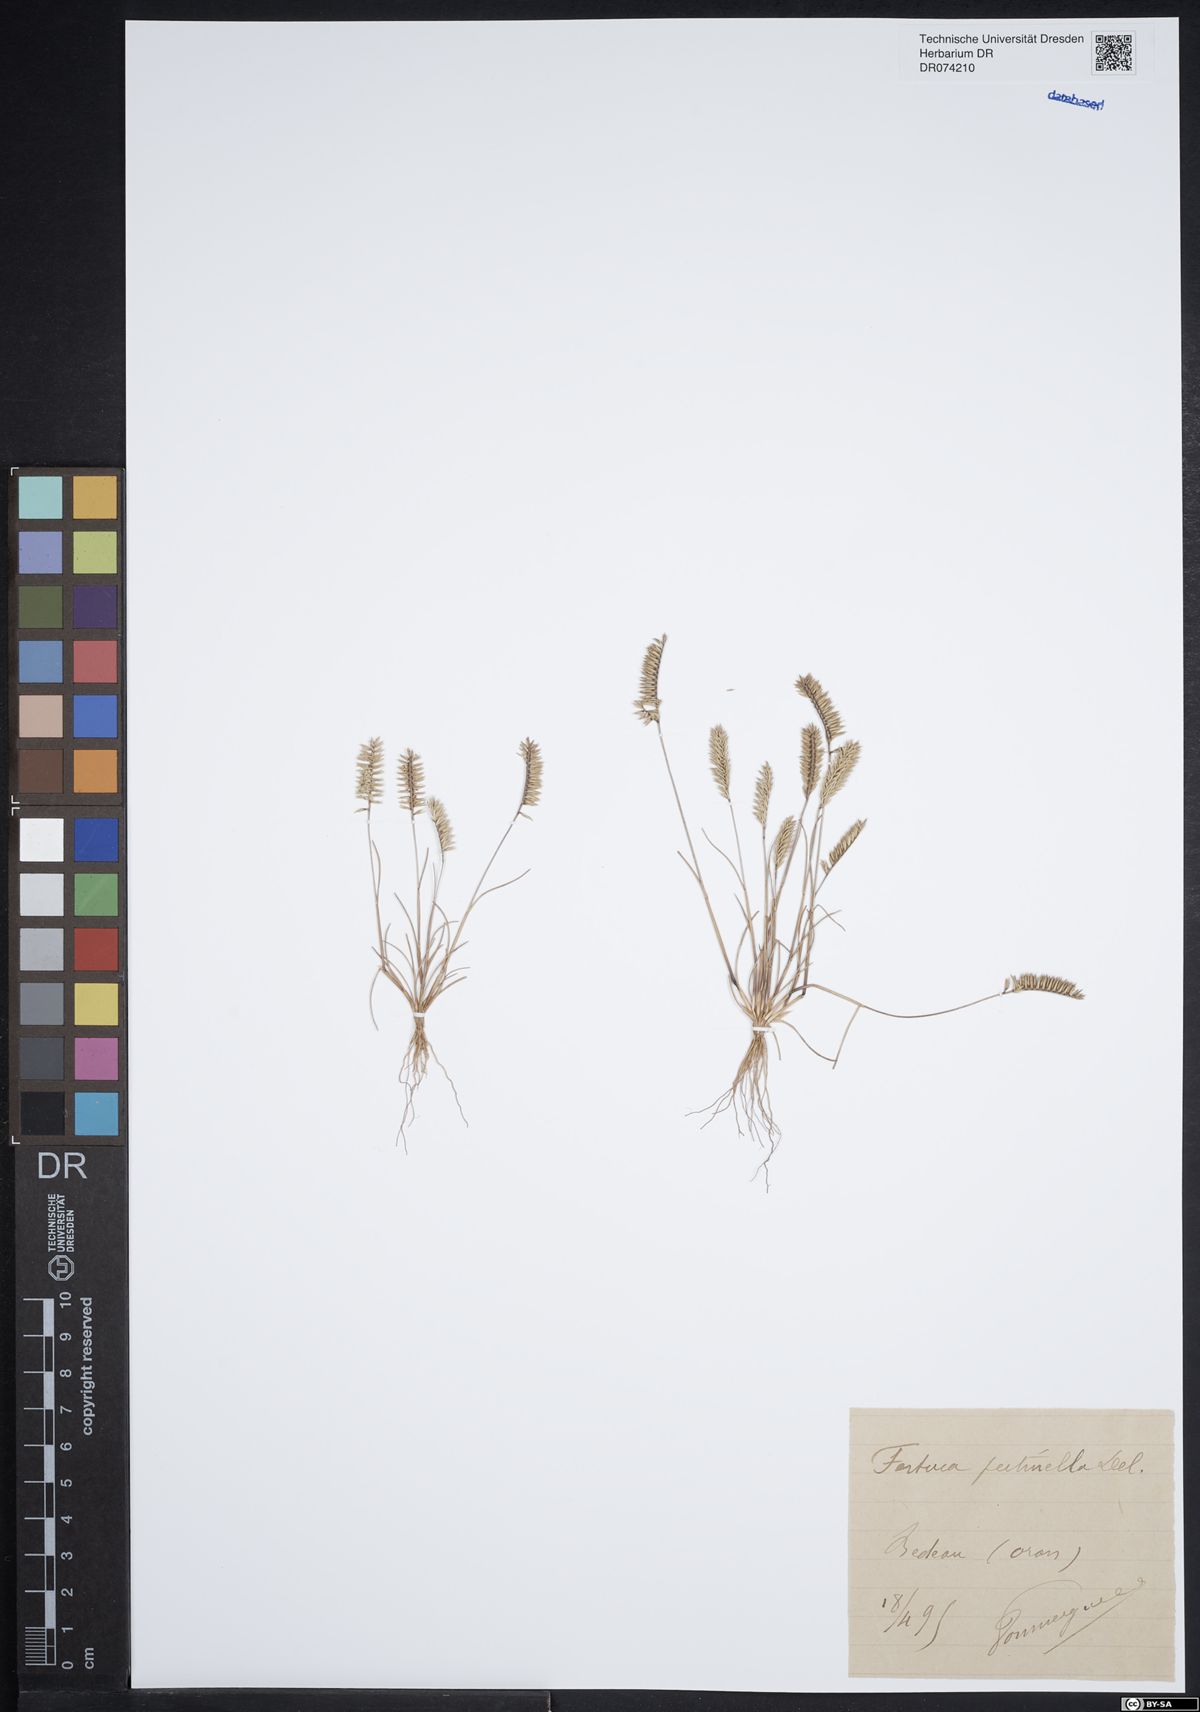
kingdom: Plantae
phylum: Tracheophyta
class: Liliopsida
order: Poales
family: Poaceae
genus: Festuca
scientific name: Festuca pectinella
